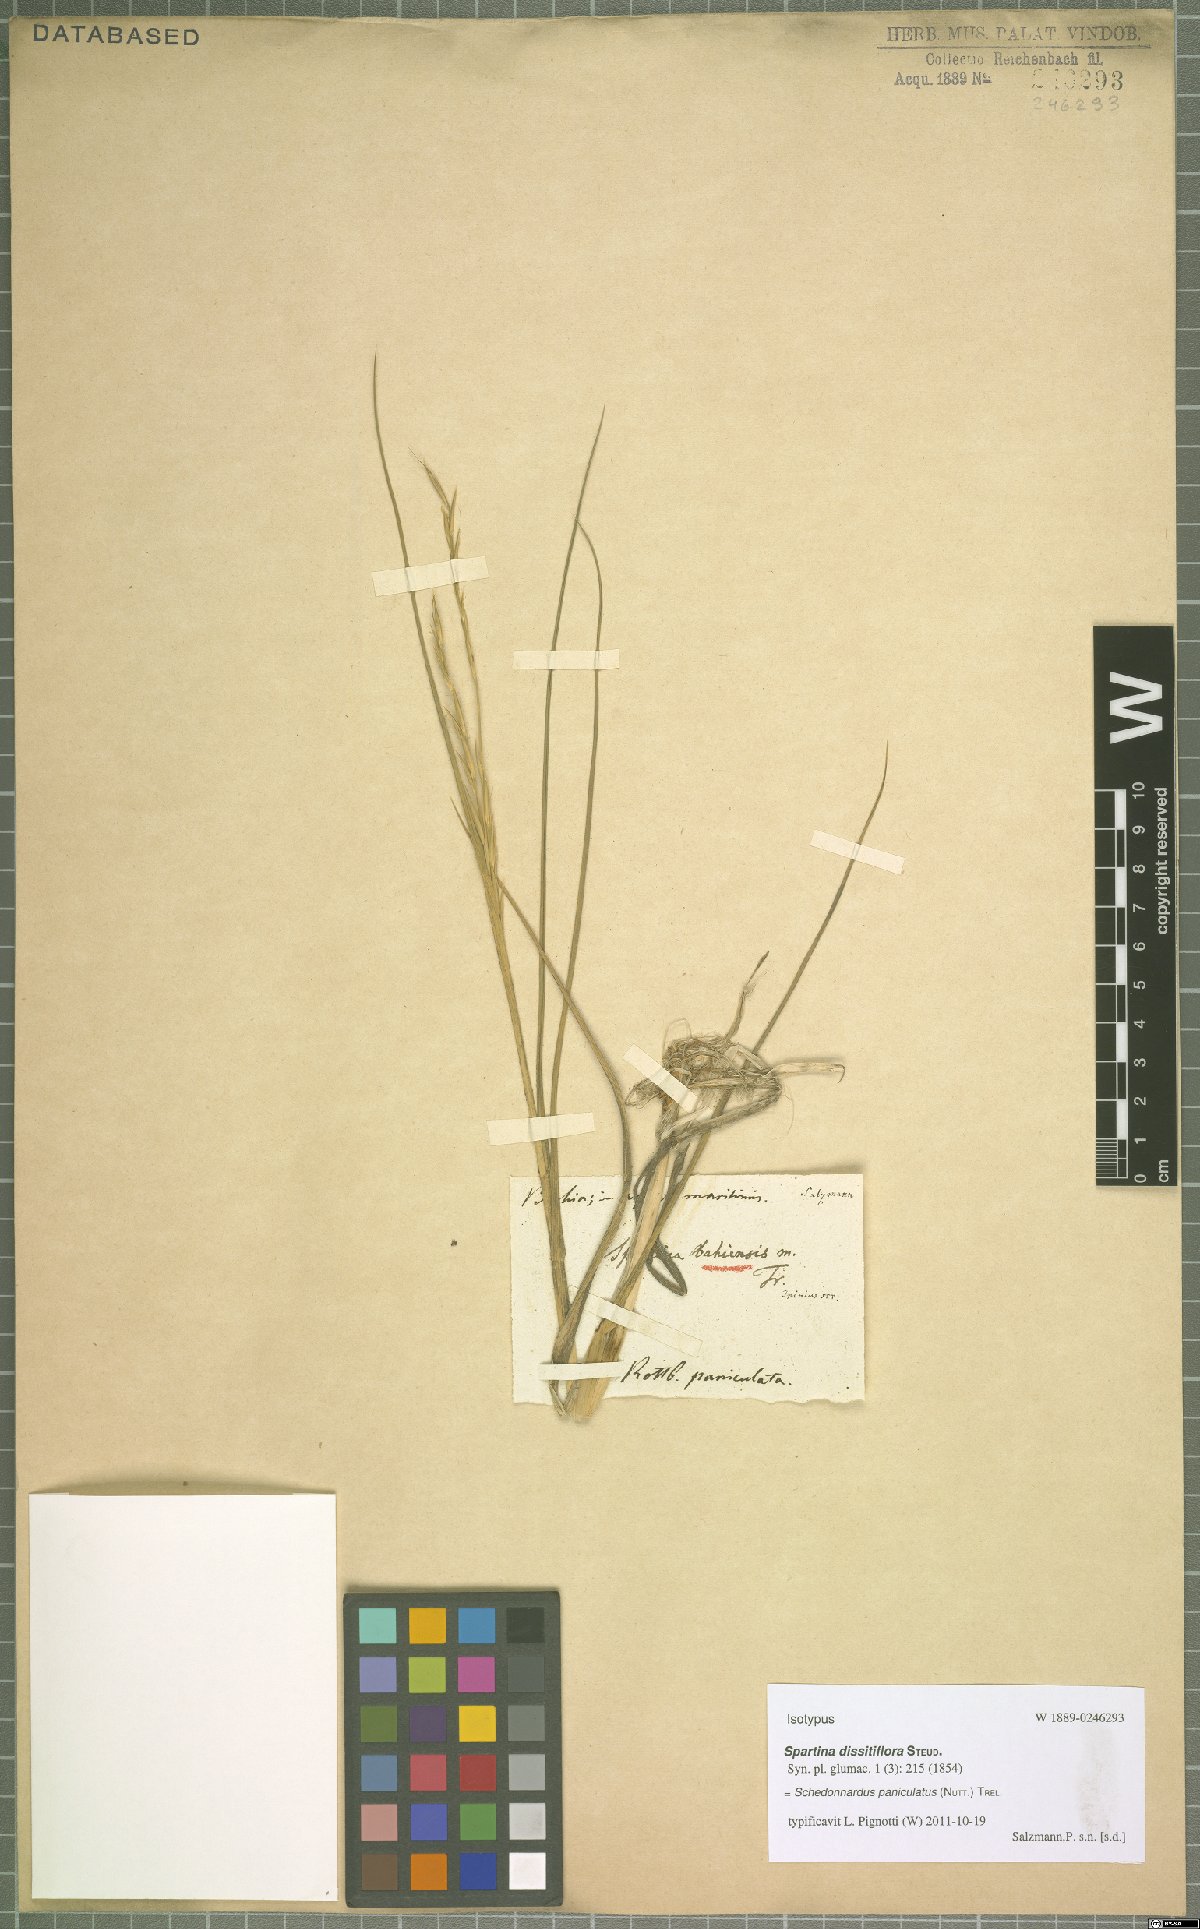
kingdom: Plantae
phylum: Tracheophyta
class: Liliopsida
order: Poales
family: Poaceae
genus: Muhlenbergia
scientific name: Muhlenbergia paniculata
